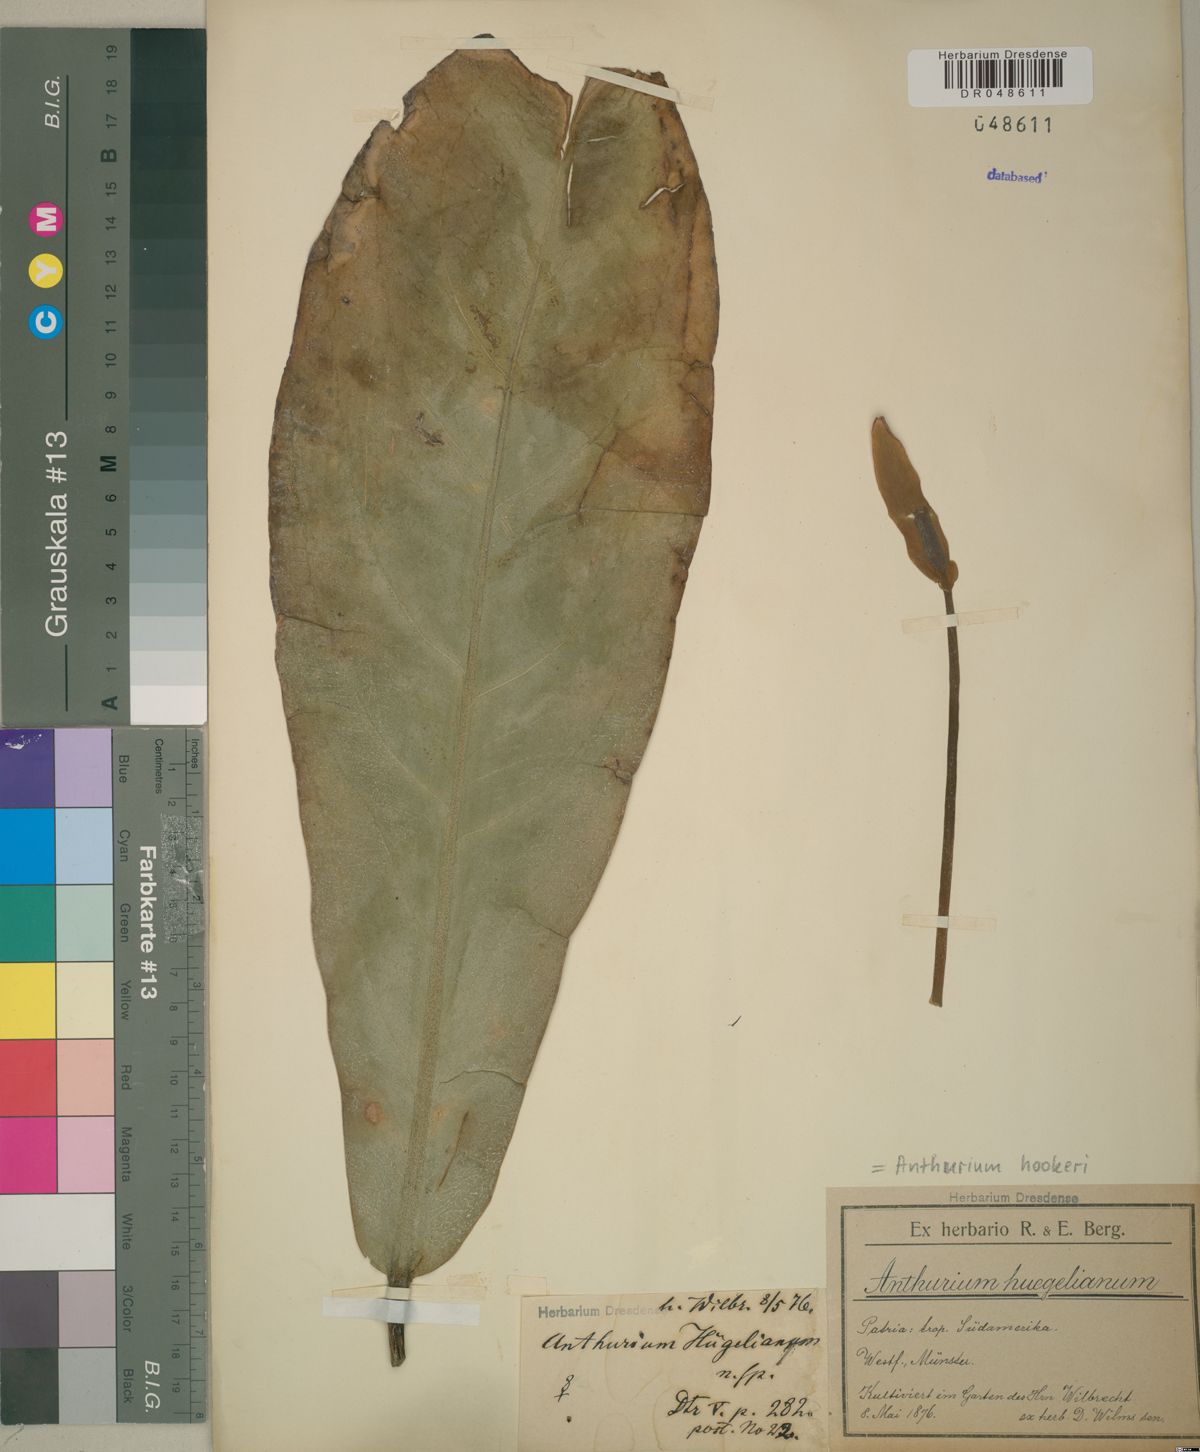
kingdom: Plantae
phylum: Tracheophyta
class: Liliopsida
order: Alismatales
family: Araceae
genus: Anthurium
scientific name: Anthurium hookeri
